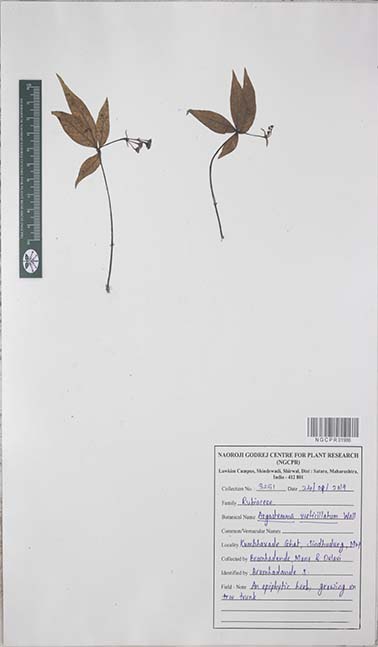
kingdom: Plantae
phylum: Tracheophyta
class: Magnoliopsida
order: Gentianales
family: Rubiaceae
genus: Argostemma
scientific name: Argostemma verticillatum
